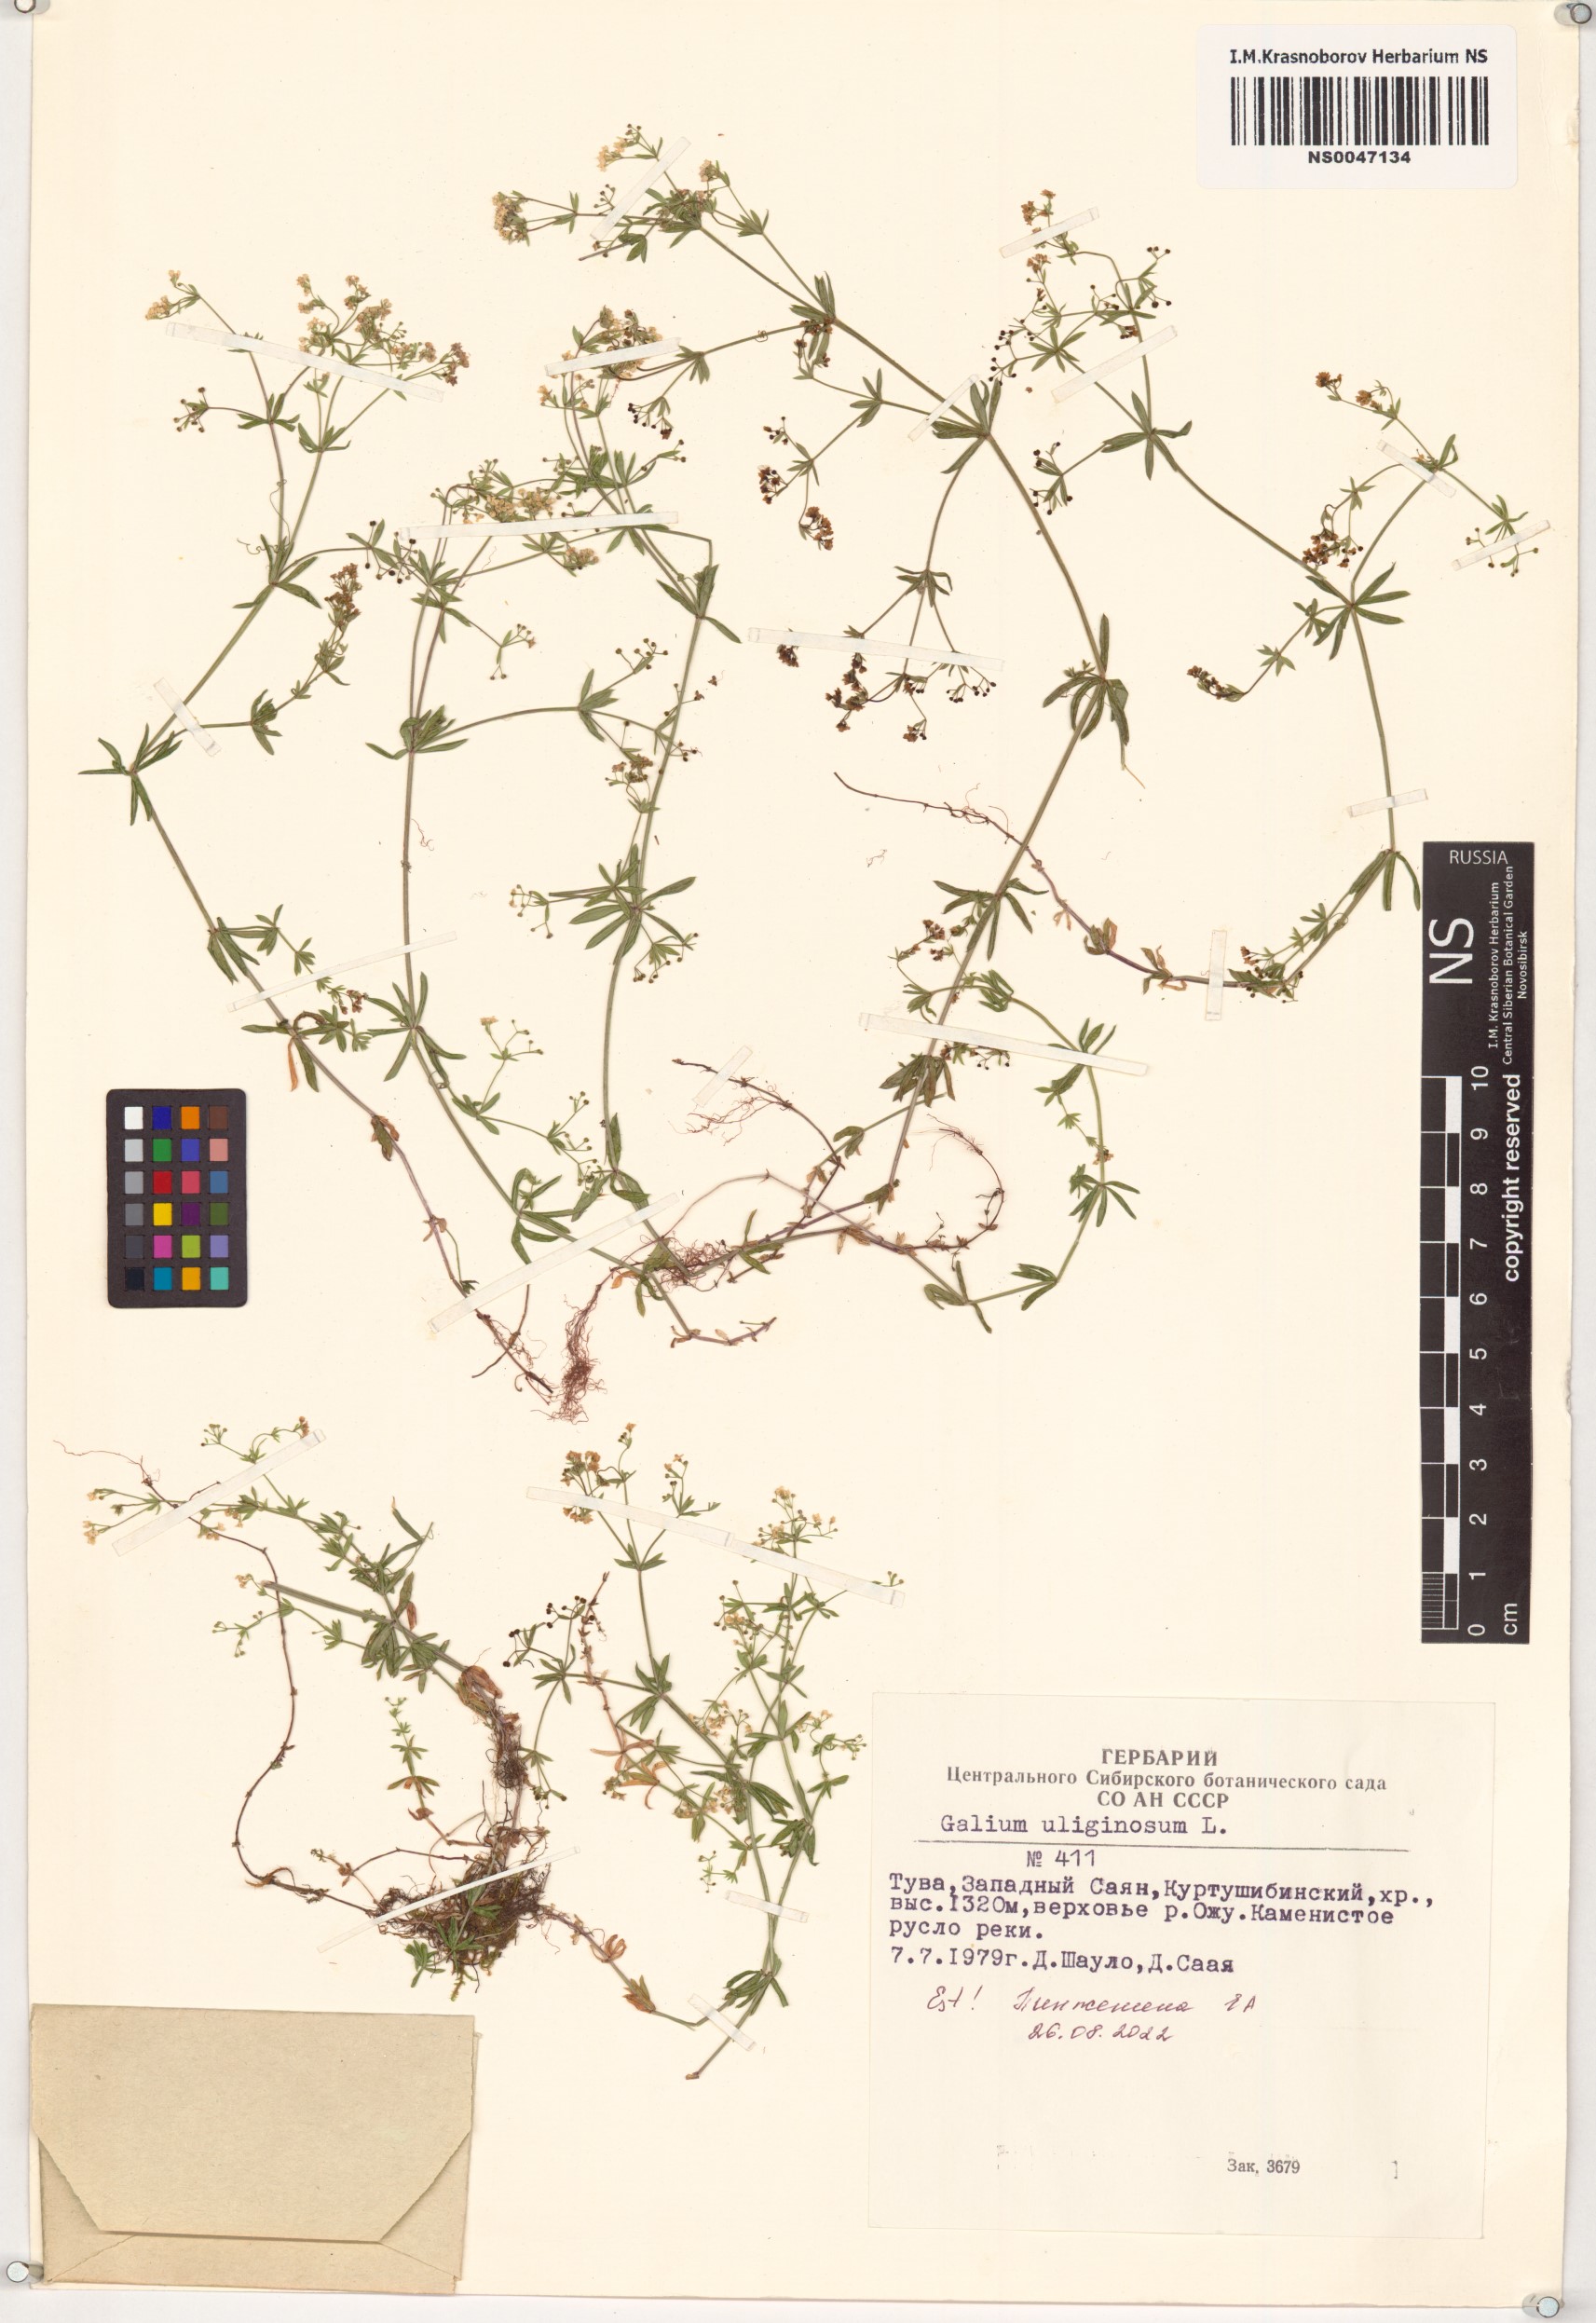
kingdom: Plantae
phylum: Tracheophyta
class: Magnoliopsida
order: Gentianales
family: Rubiaceae
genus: Galium
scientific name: Galium uliginosum
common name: Fen bedstraw
